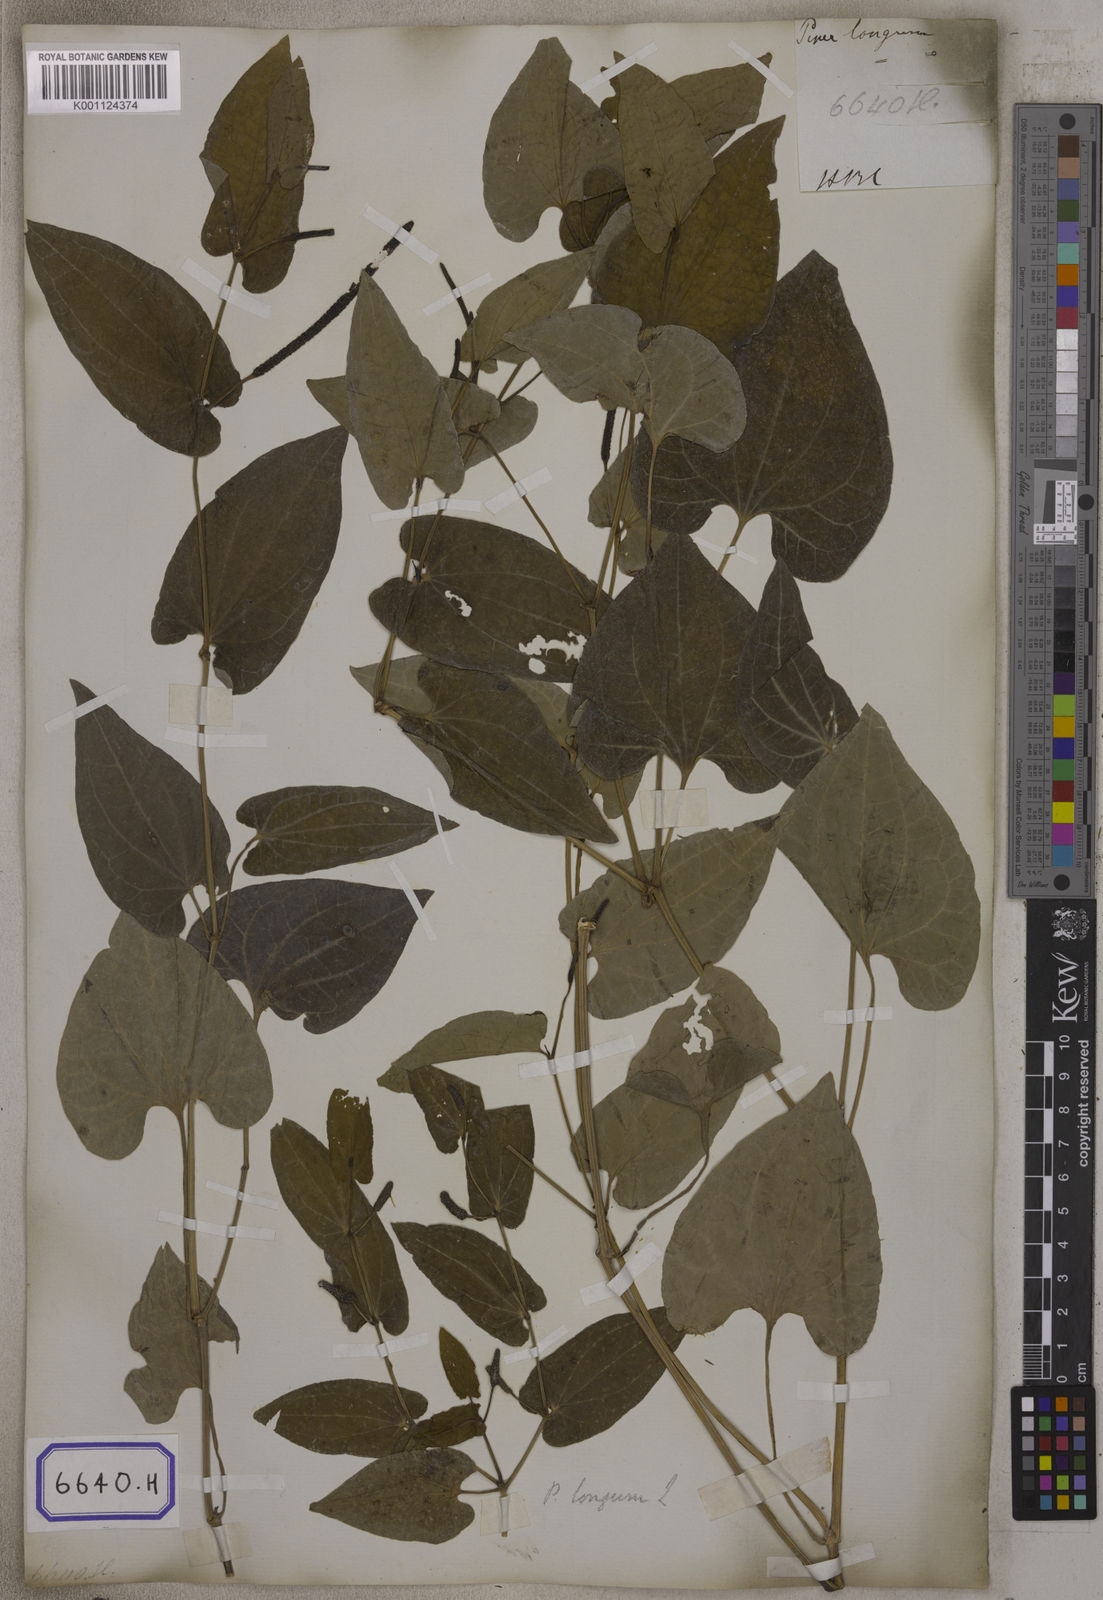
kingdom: Plantae
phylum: Tracheophyta
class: Magnoliopsida
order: Piperales
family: Piperaceae
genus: Piper
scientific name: Piper longum
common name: Long pepper
